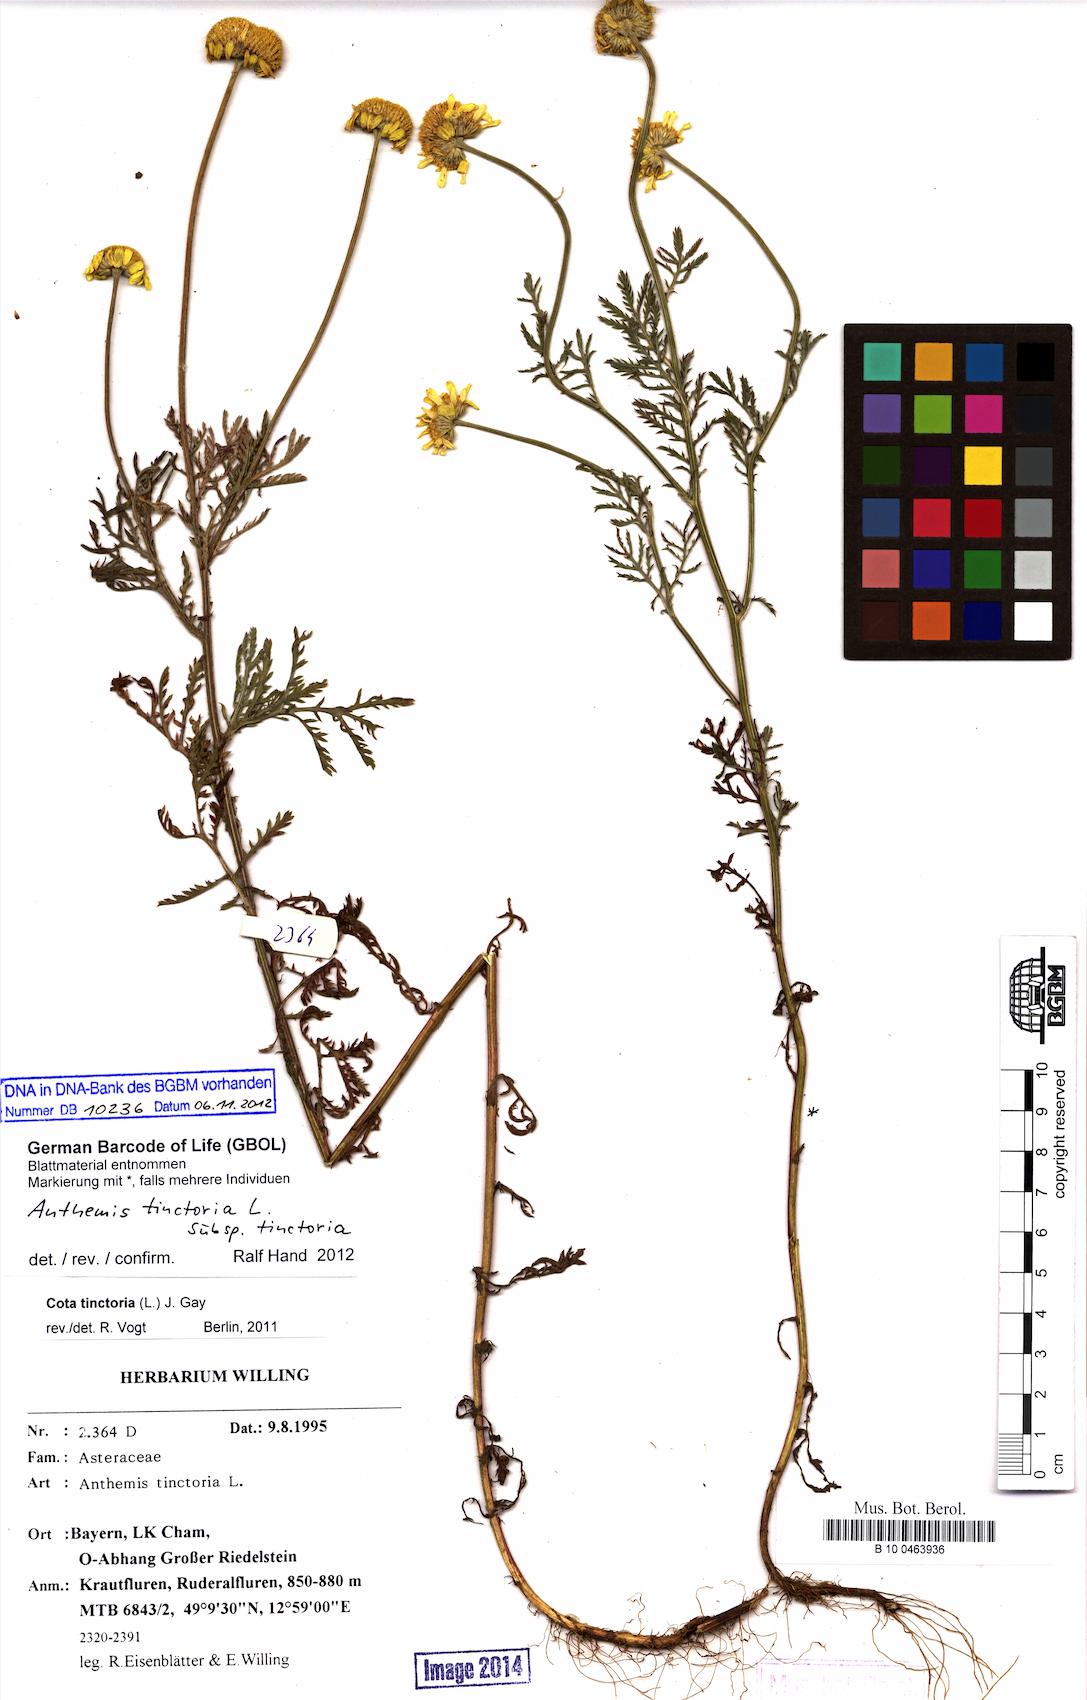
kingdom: Plantae
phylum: Tracheophyta
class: Magnoliopsida
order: Asterales
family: Asteraceae
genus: Cota
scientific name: Cota tinctoria
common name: Golden chamomile
